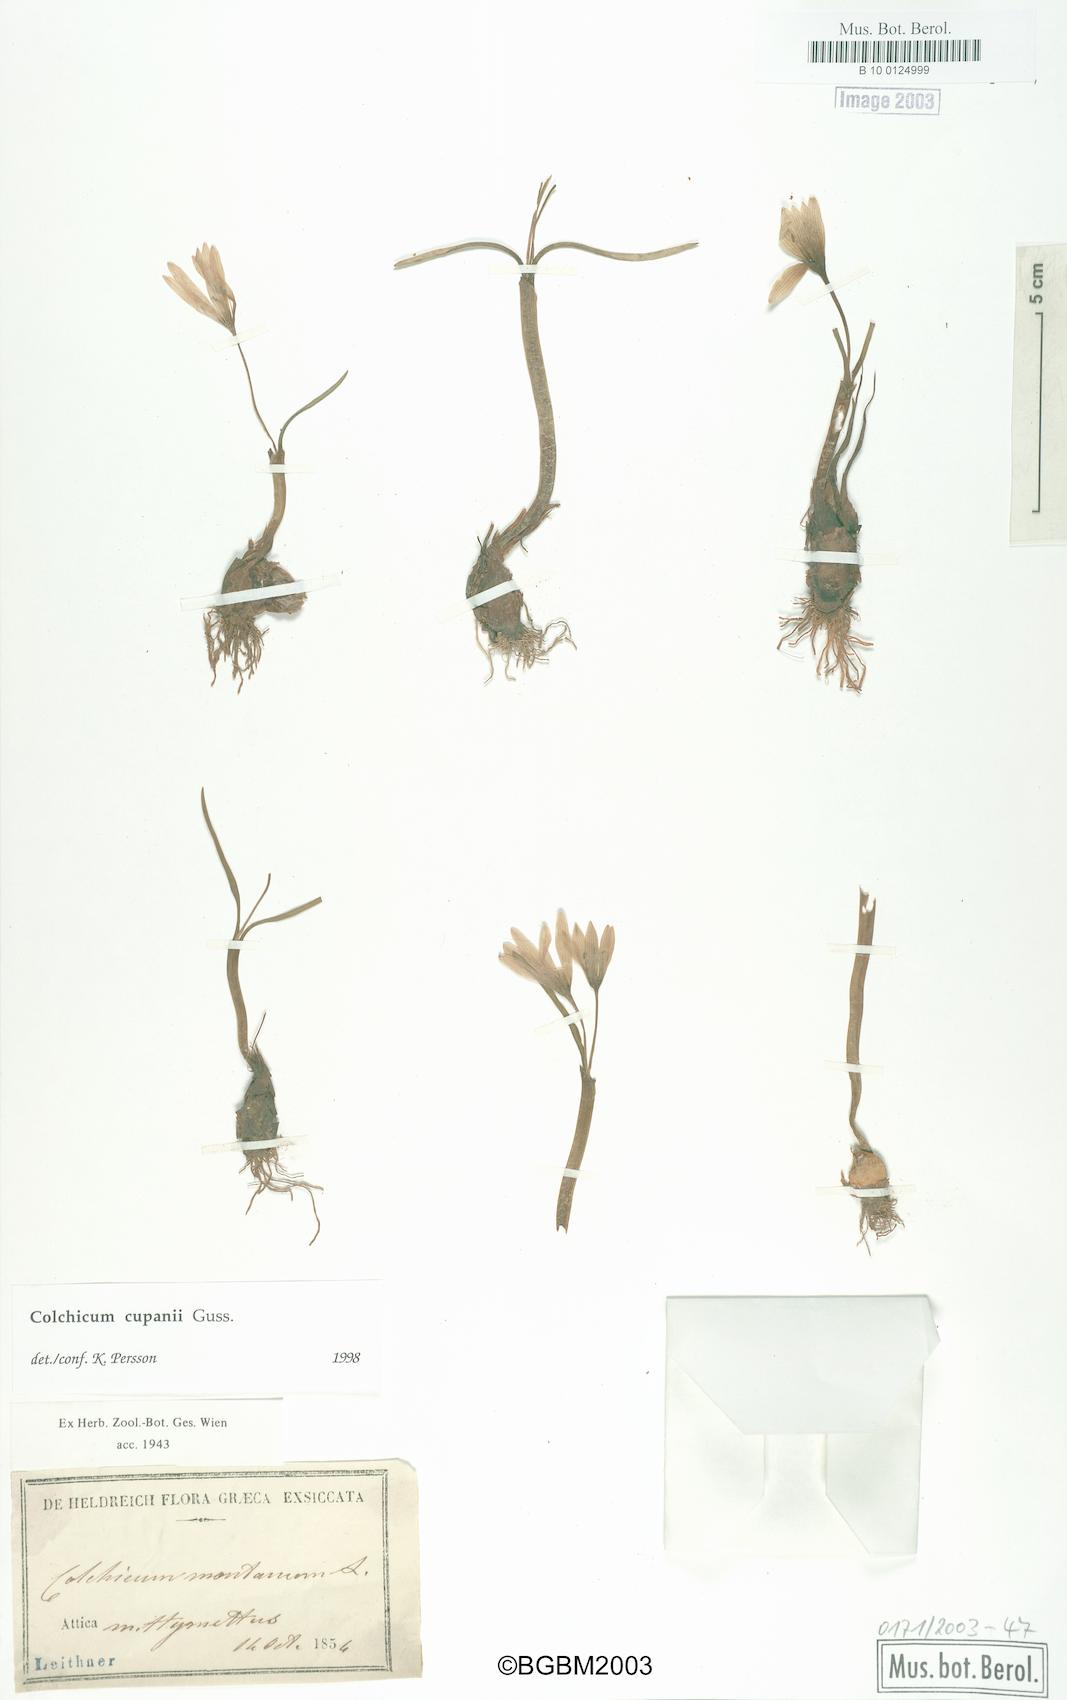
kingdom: Plantae
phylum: Tracheophyta
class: Liliopsida
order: Liliales
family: Colchicaceae
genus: Colchicum
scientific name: Colchicum cupanii
